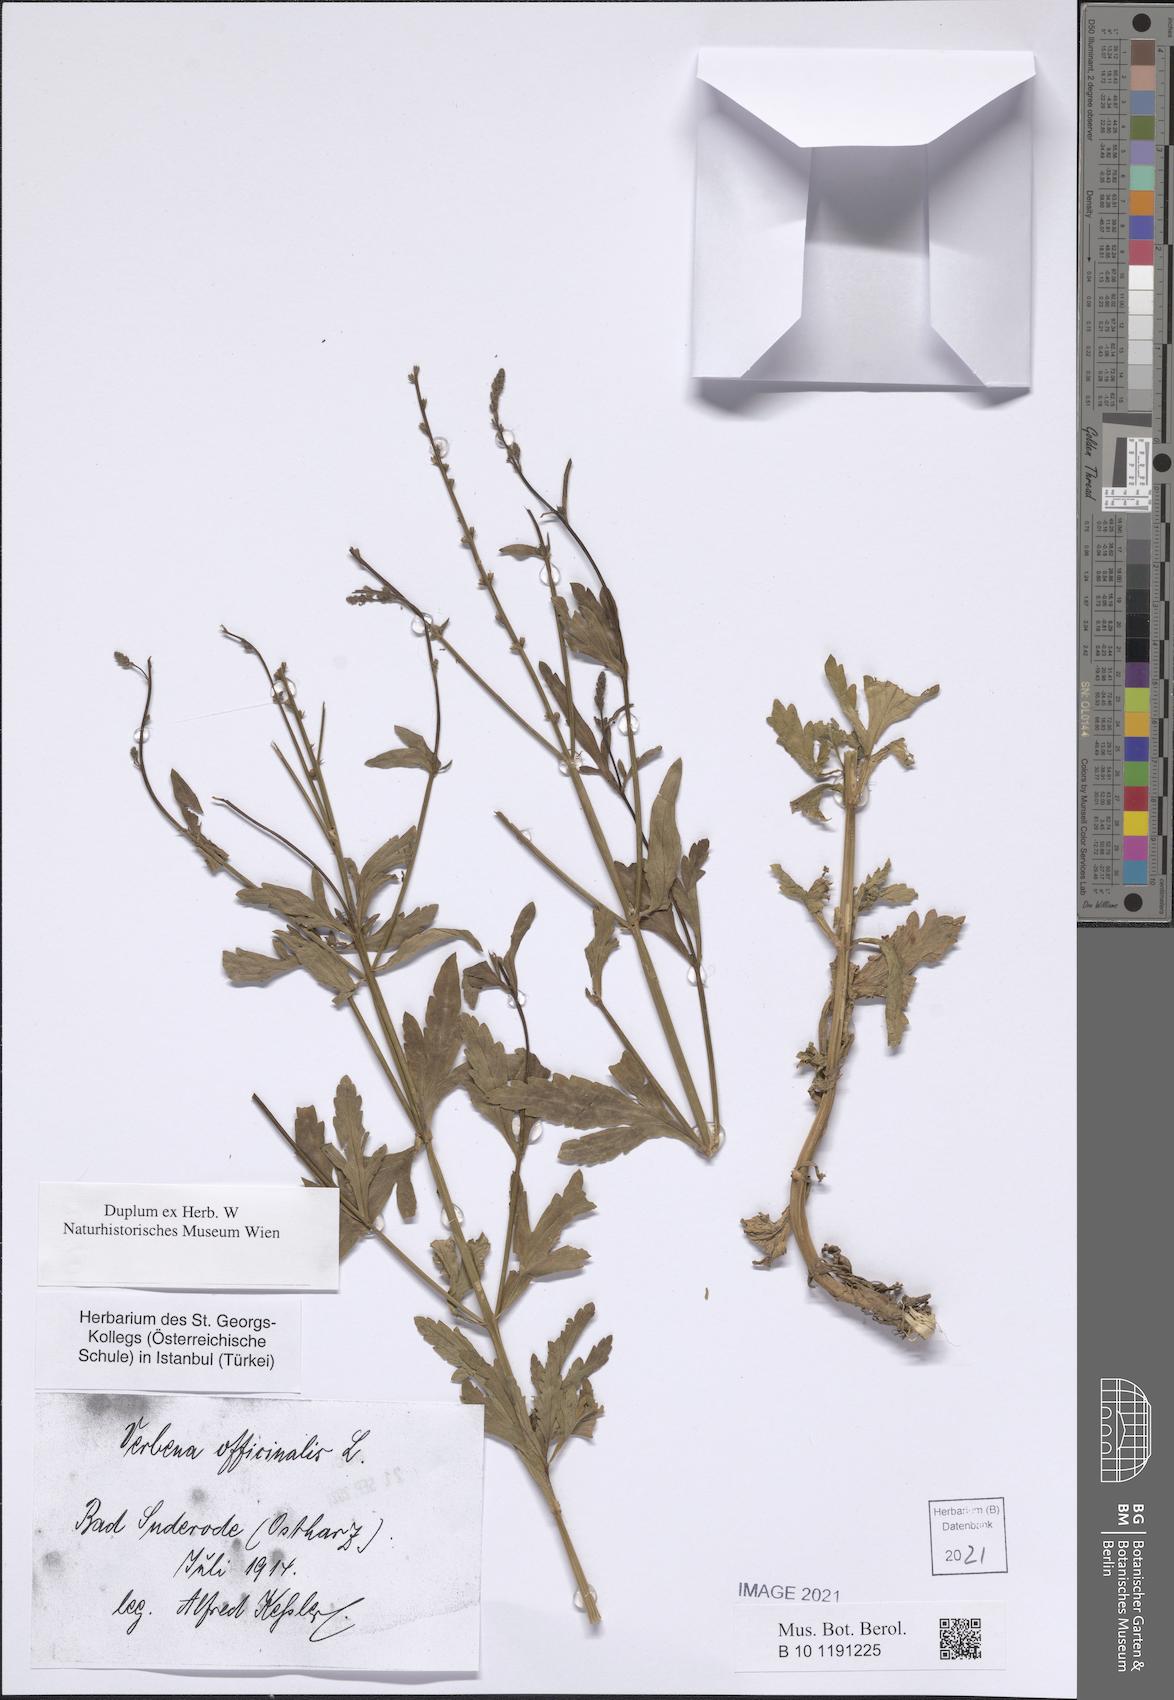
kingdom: Plantae
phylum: Tracheophyta
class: Magnoliopsida
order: Lamiales
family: Verbenaceae
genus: Verbena
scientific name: Verbena officinalis
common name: Vervain
